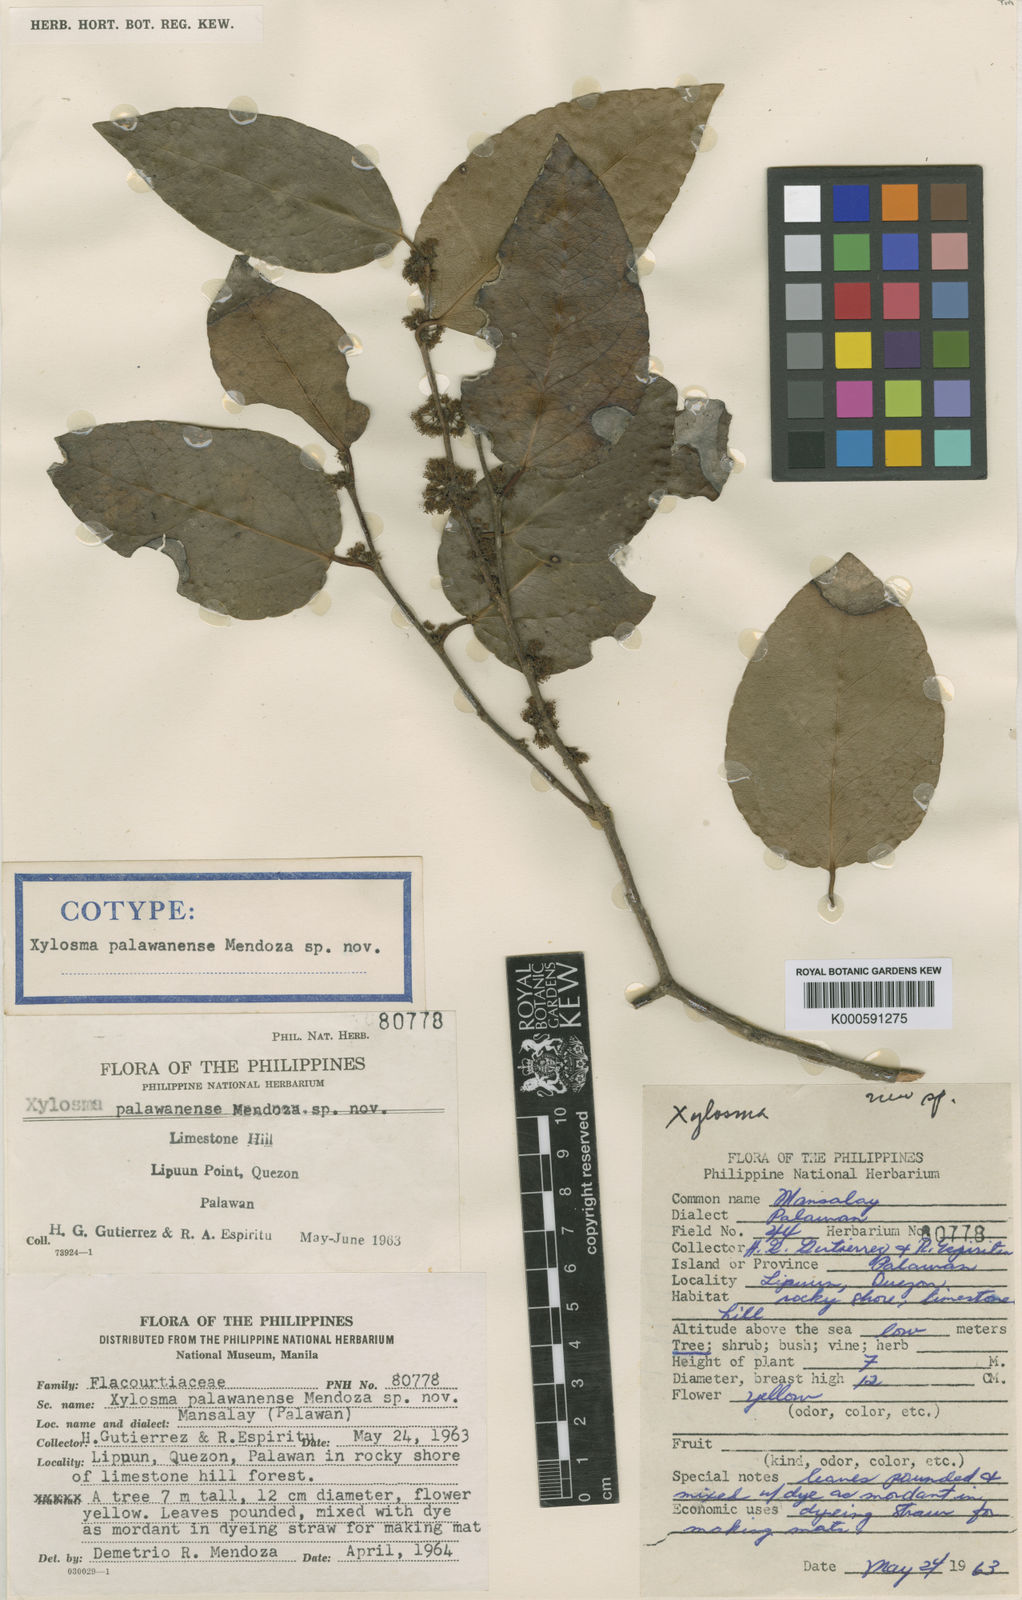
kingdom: Plantae
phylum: Tracheophyta
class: Magnoliopsida
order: Malpighiales
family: Salicaceae
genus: Xylosma
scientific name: Xylosma palawanensis
